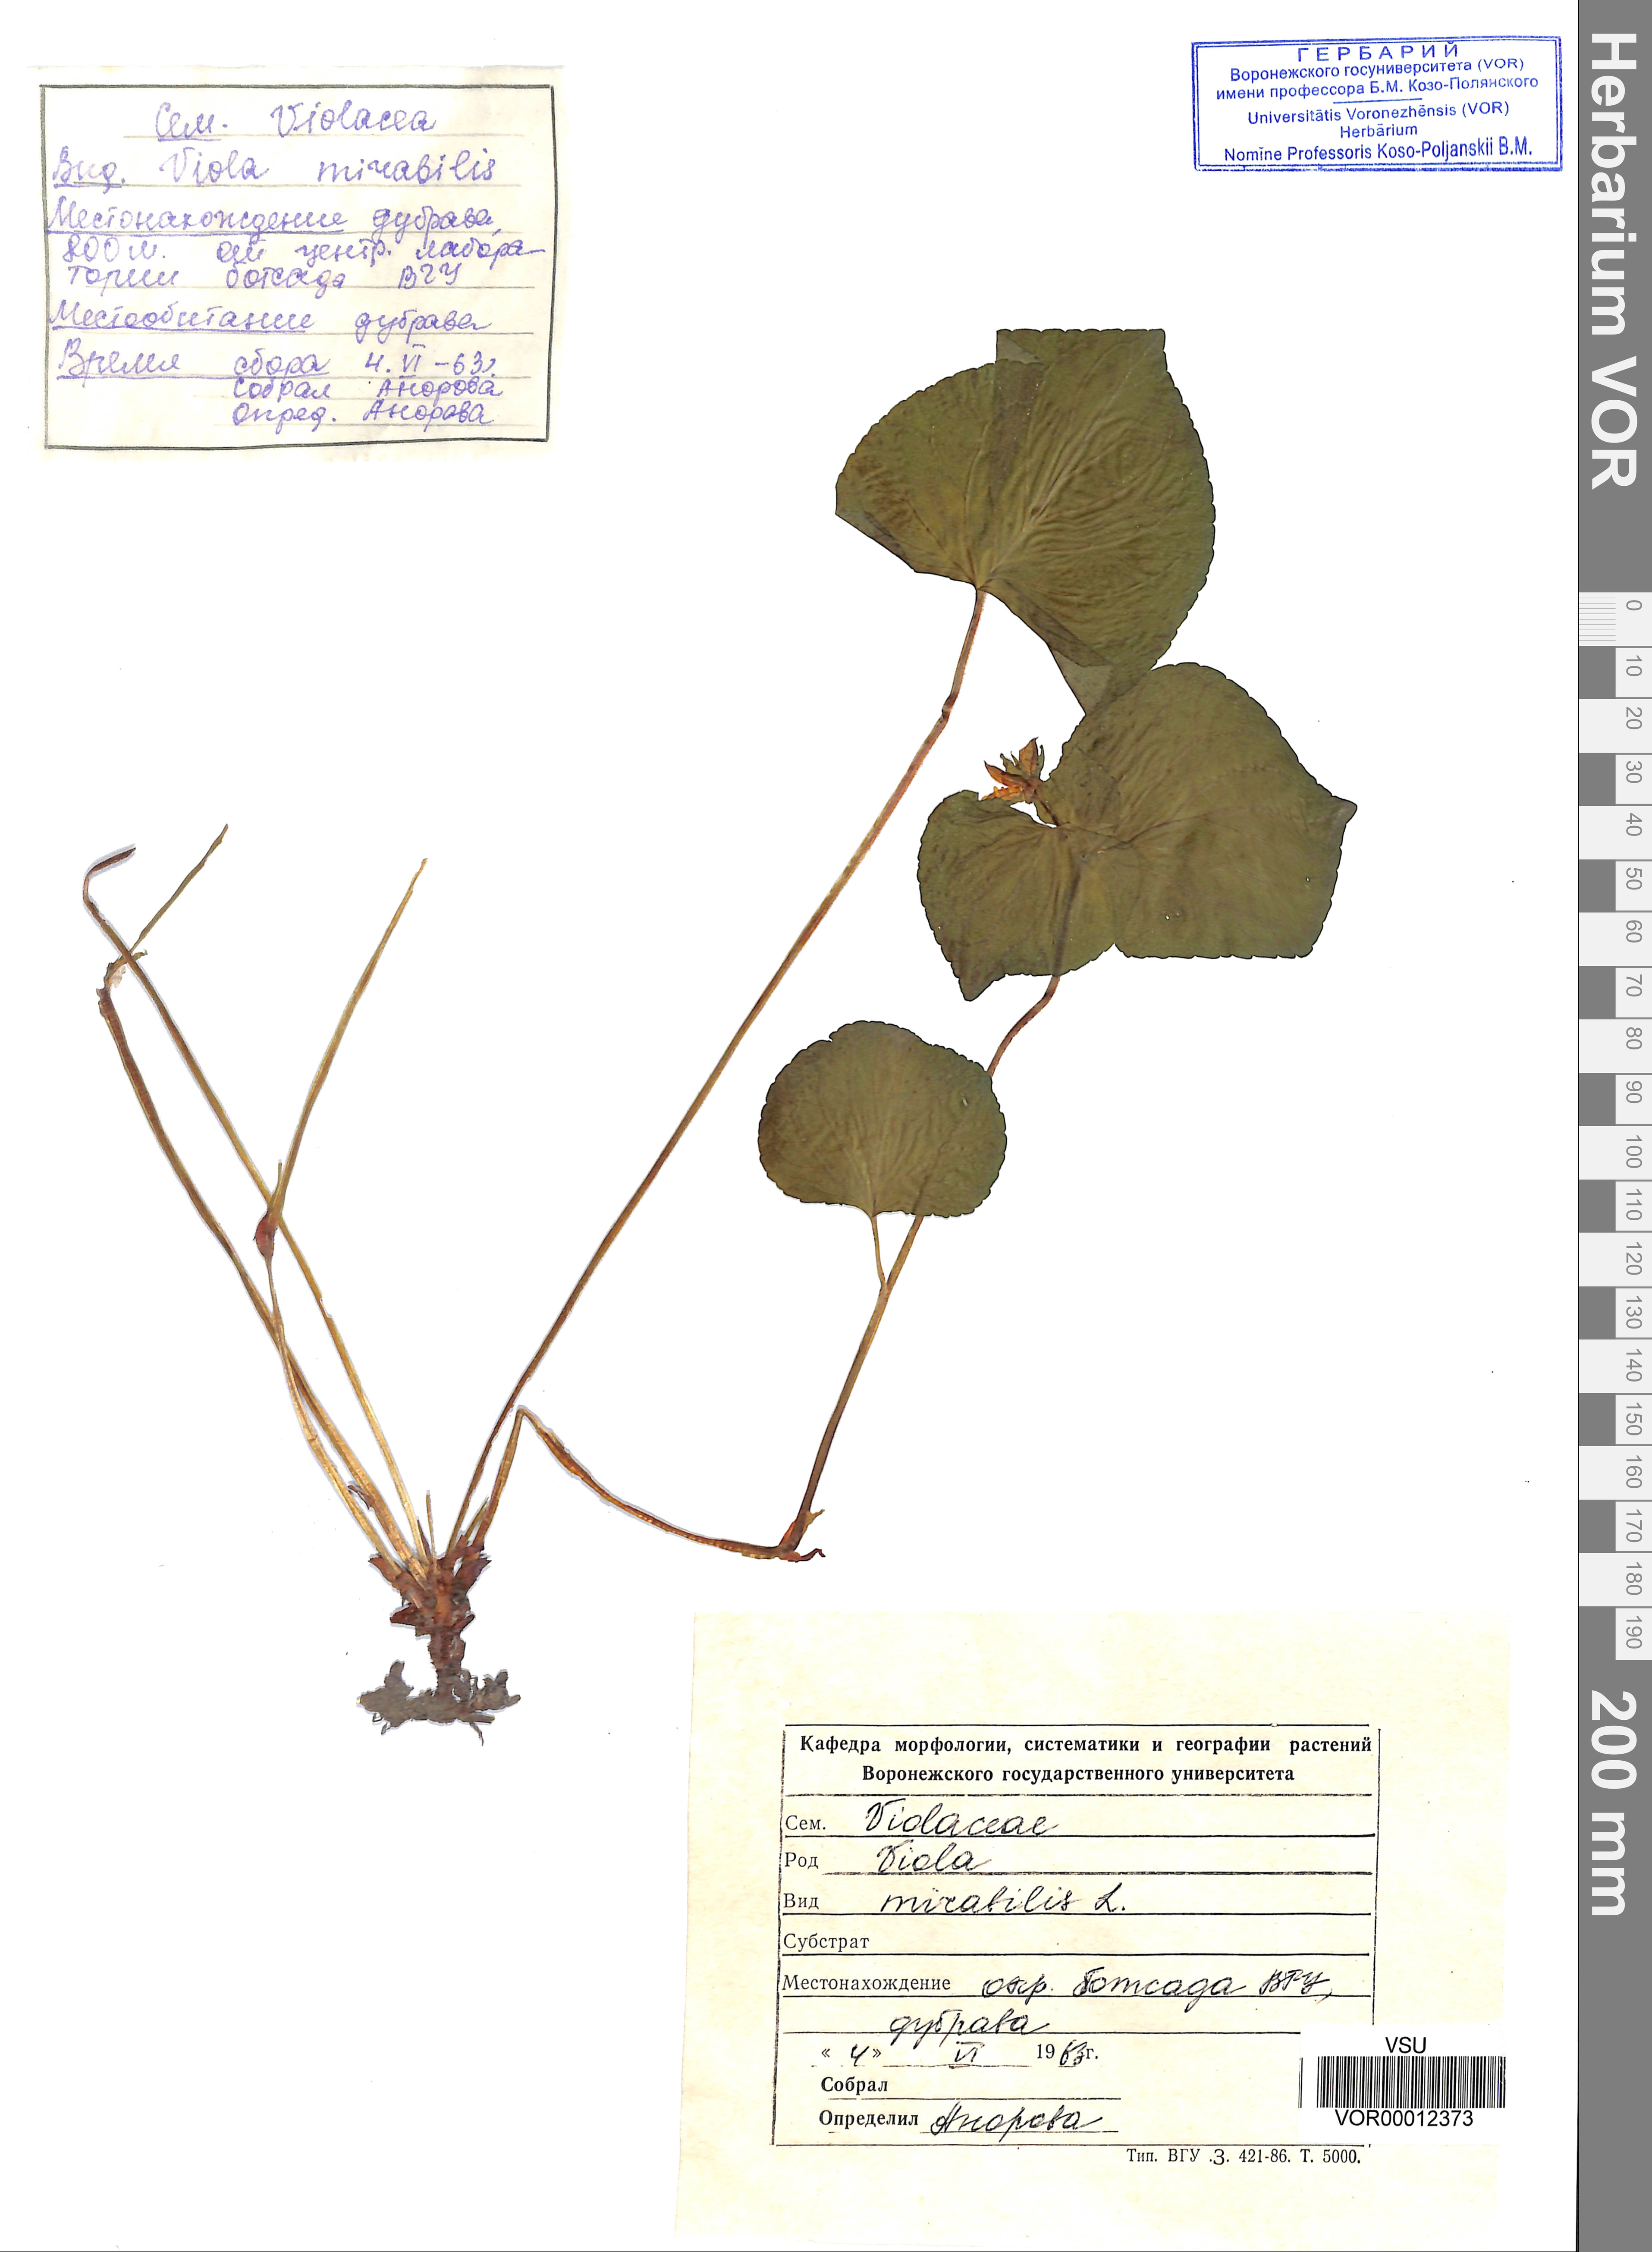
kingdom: Plantae
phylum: Tracheophyta
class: Magnoliopsida
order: Malpighiales
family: Violaceae
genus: Viola
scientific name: Viola mirabilis
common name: Wonder violet
